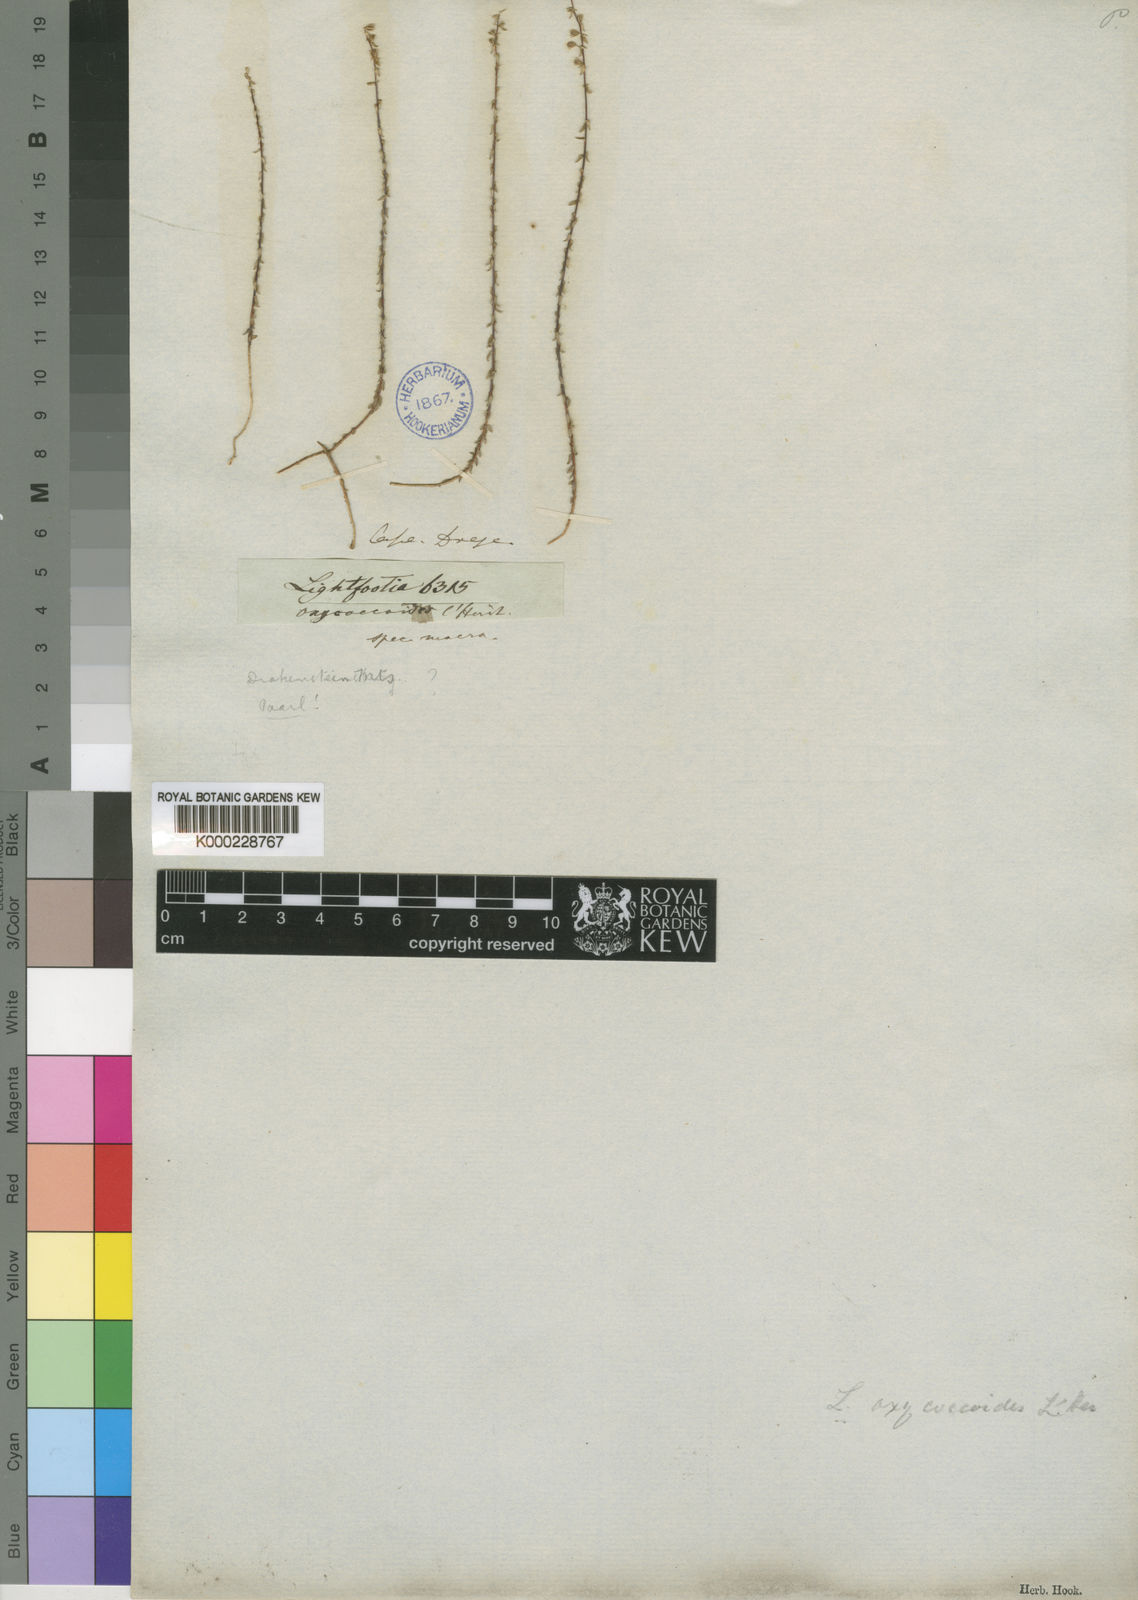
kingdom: Plantae
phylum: Tracheophyta
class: Magnoliopsida
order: Malvales
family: Bixaceae
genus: Lightfootia
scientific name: Lightfootia
